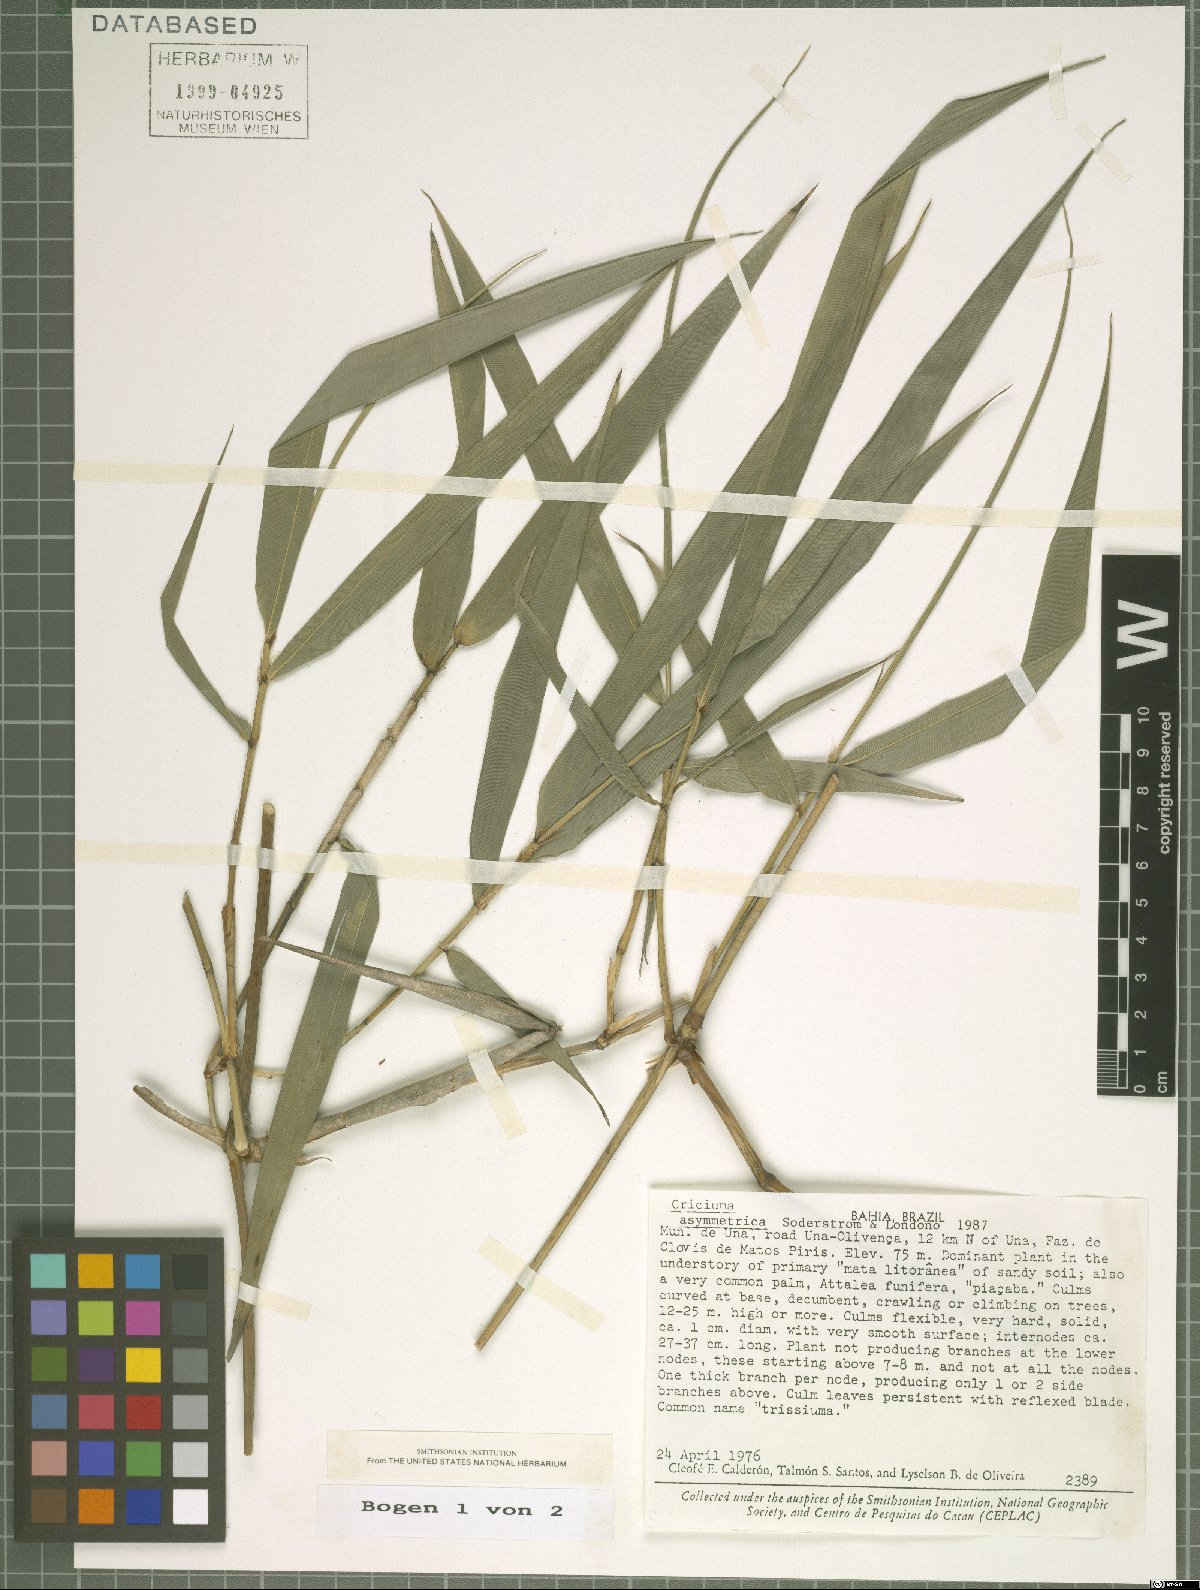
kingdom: Plantae
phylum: Tracheophyta
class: Liliopsida
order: Poales
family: Poaceae
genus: Eremocaulon
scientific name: Eremocaulon asymmetricum
